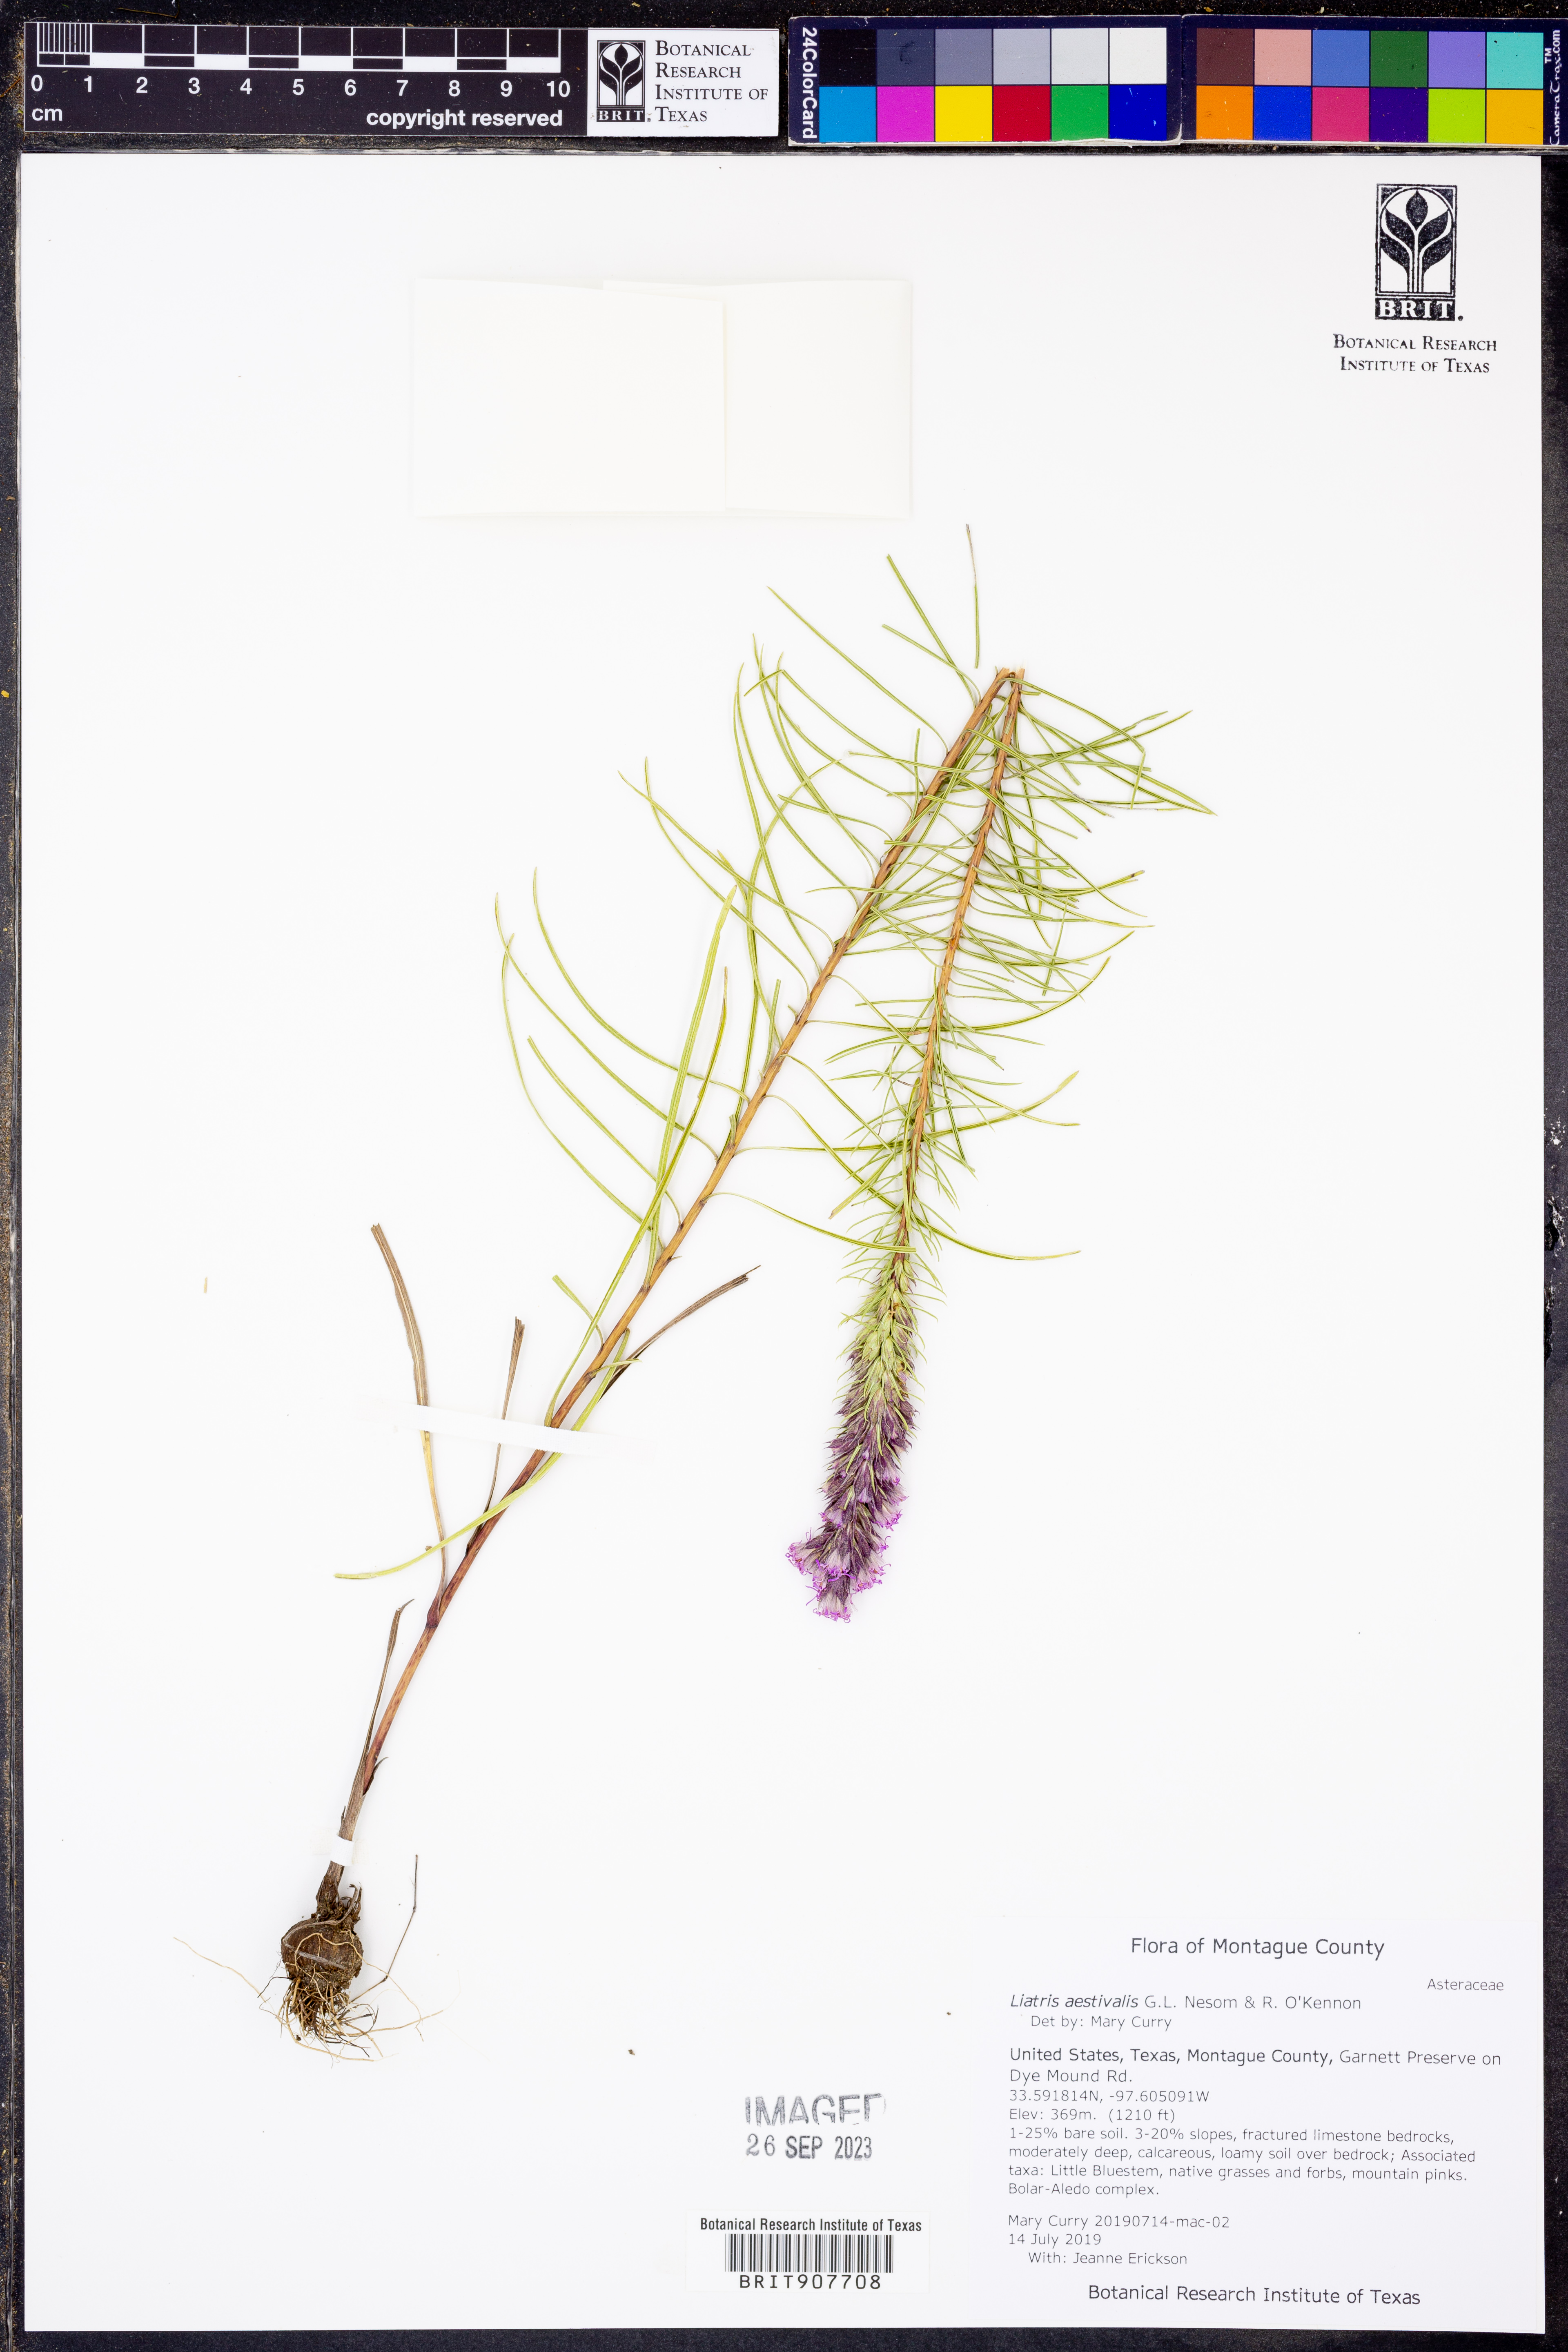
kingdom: Plantae
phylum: Tracheophyta
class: Magnoliopsida
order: Asterales
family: Asteraceae
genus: Liatris
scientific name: Liatris aestivalis
